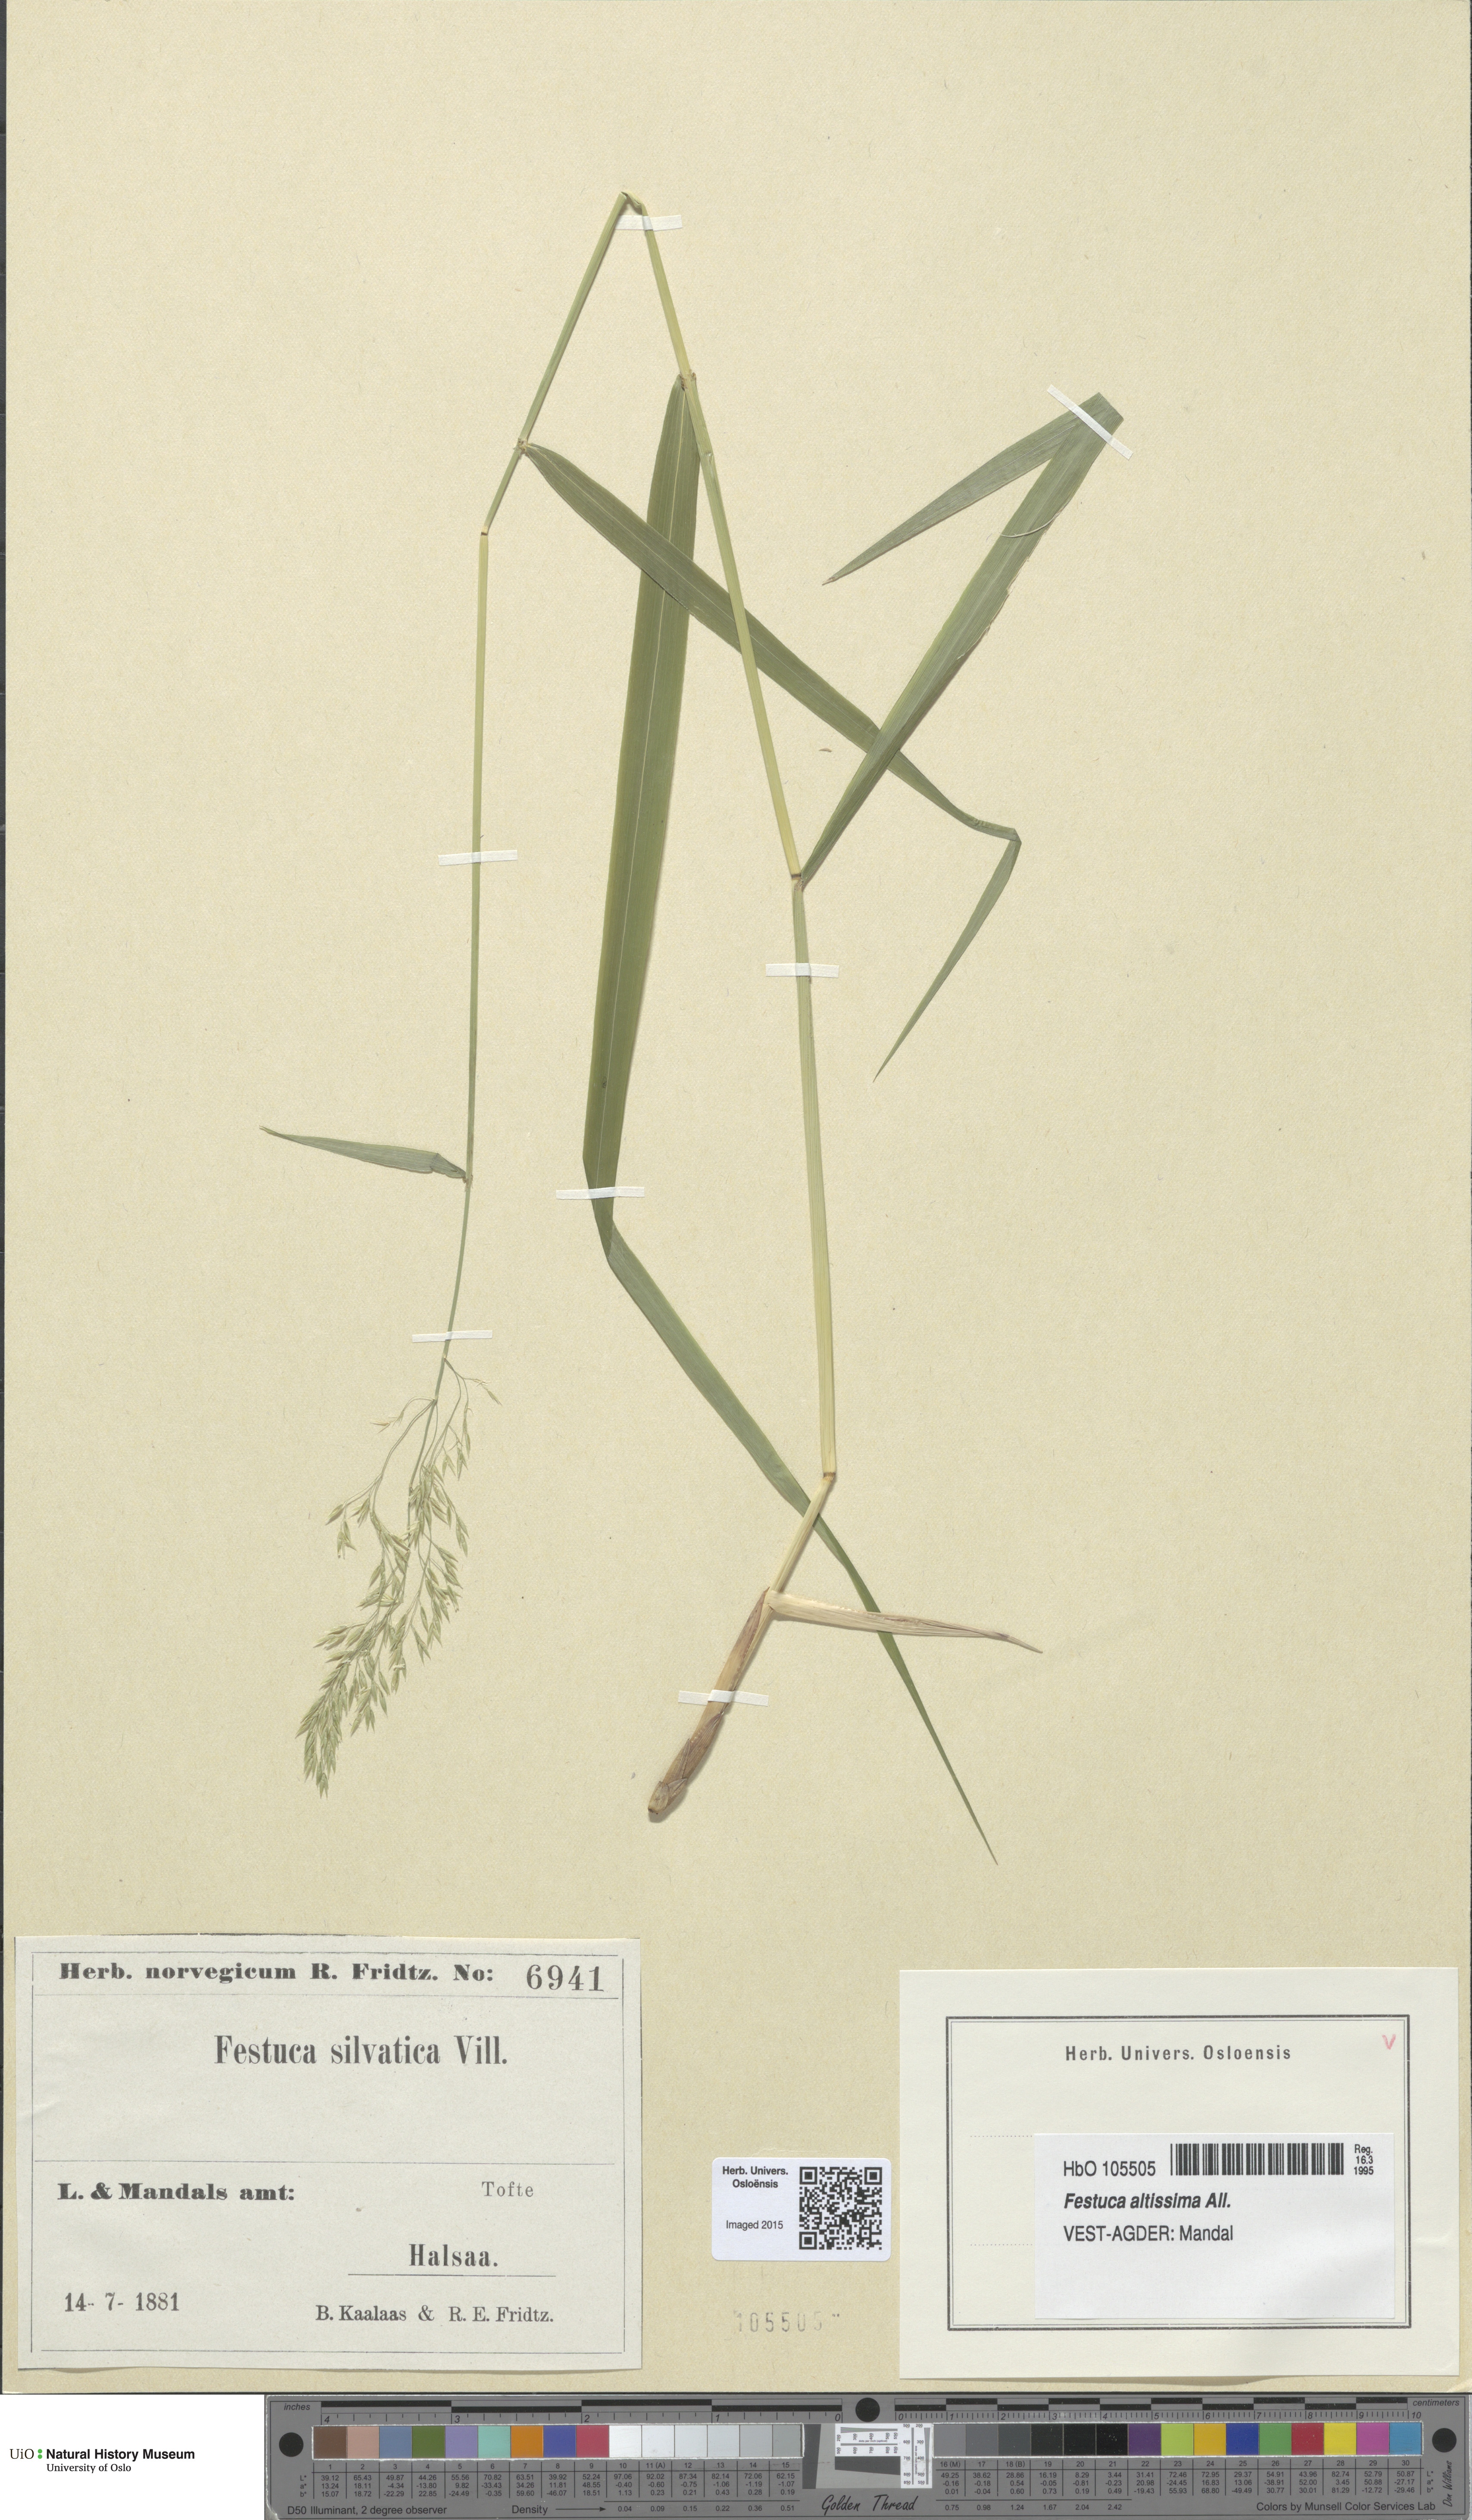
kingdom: Plantae
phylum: Tracheophyta
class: Liliopsida
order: Poales
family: Poaceae
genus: Festuca
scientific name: Festuca altissima
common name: Wood fescue
